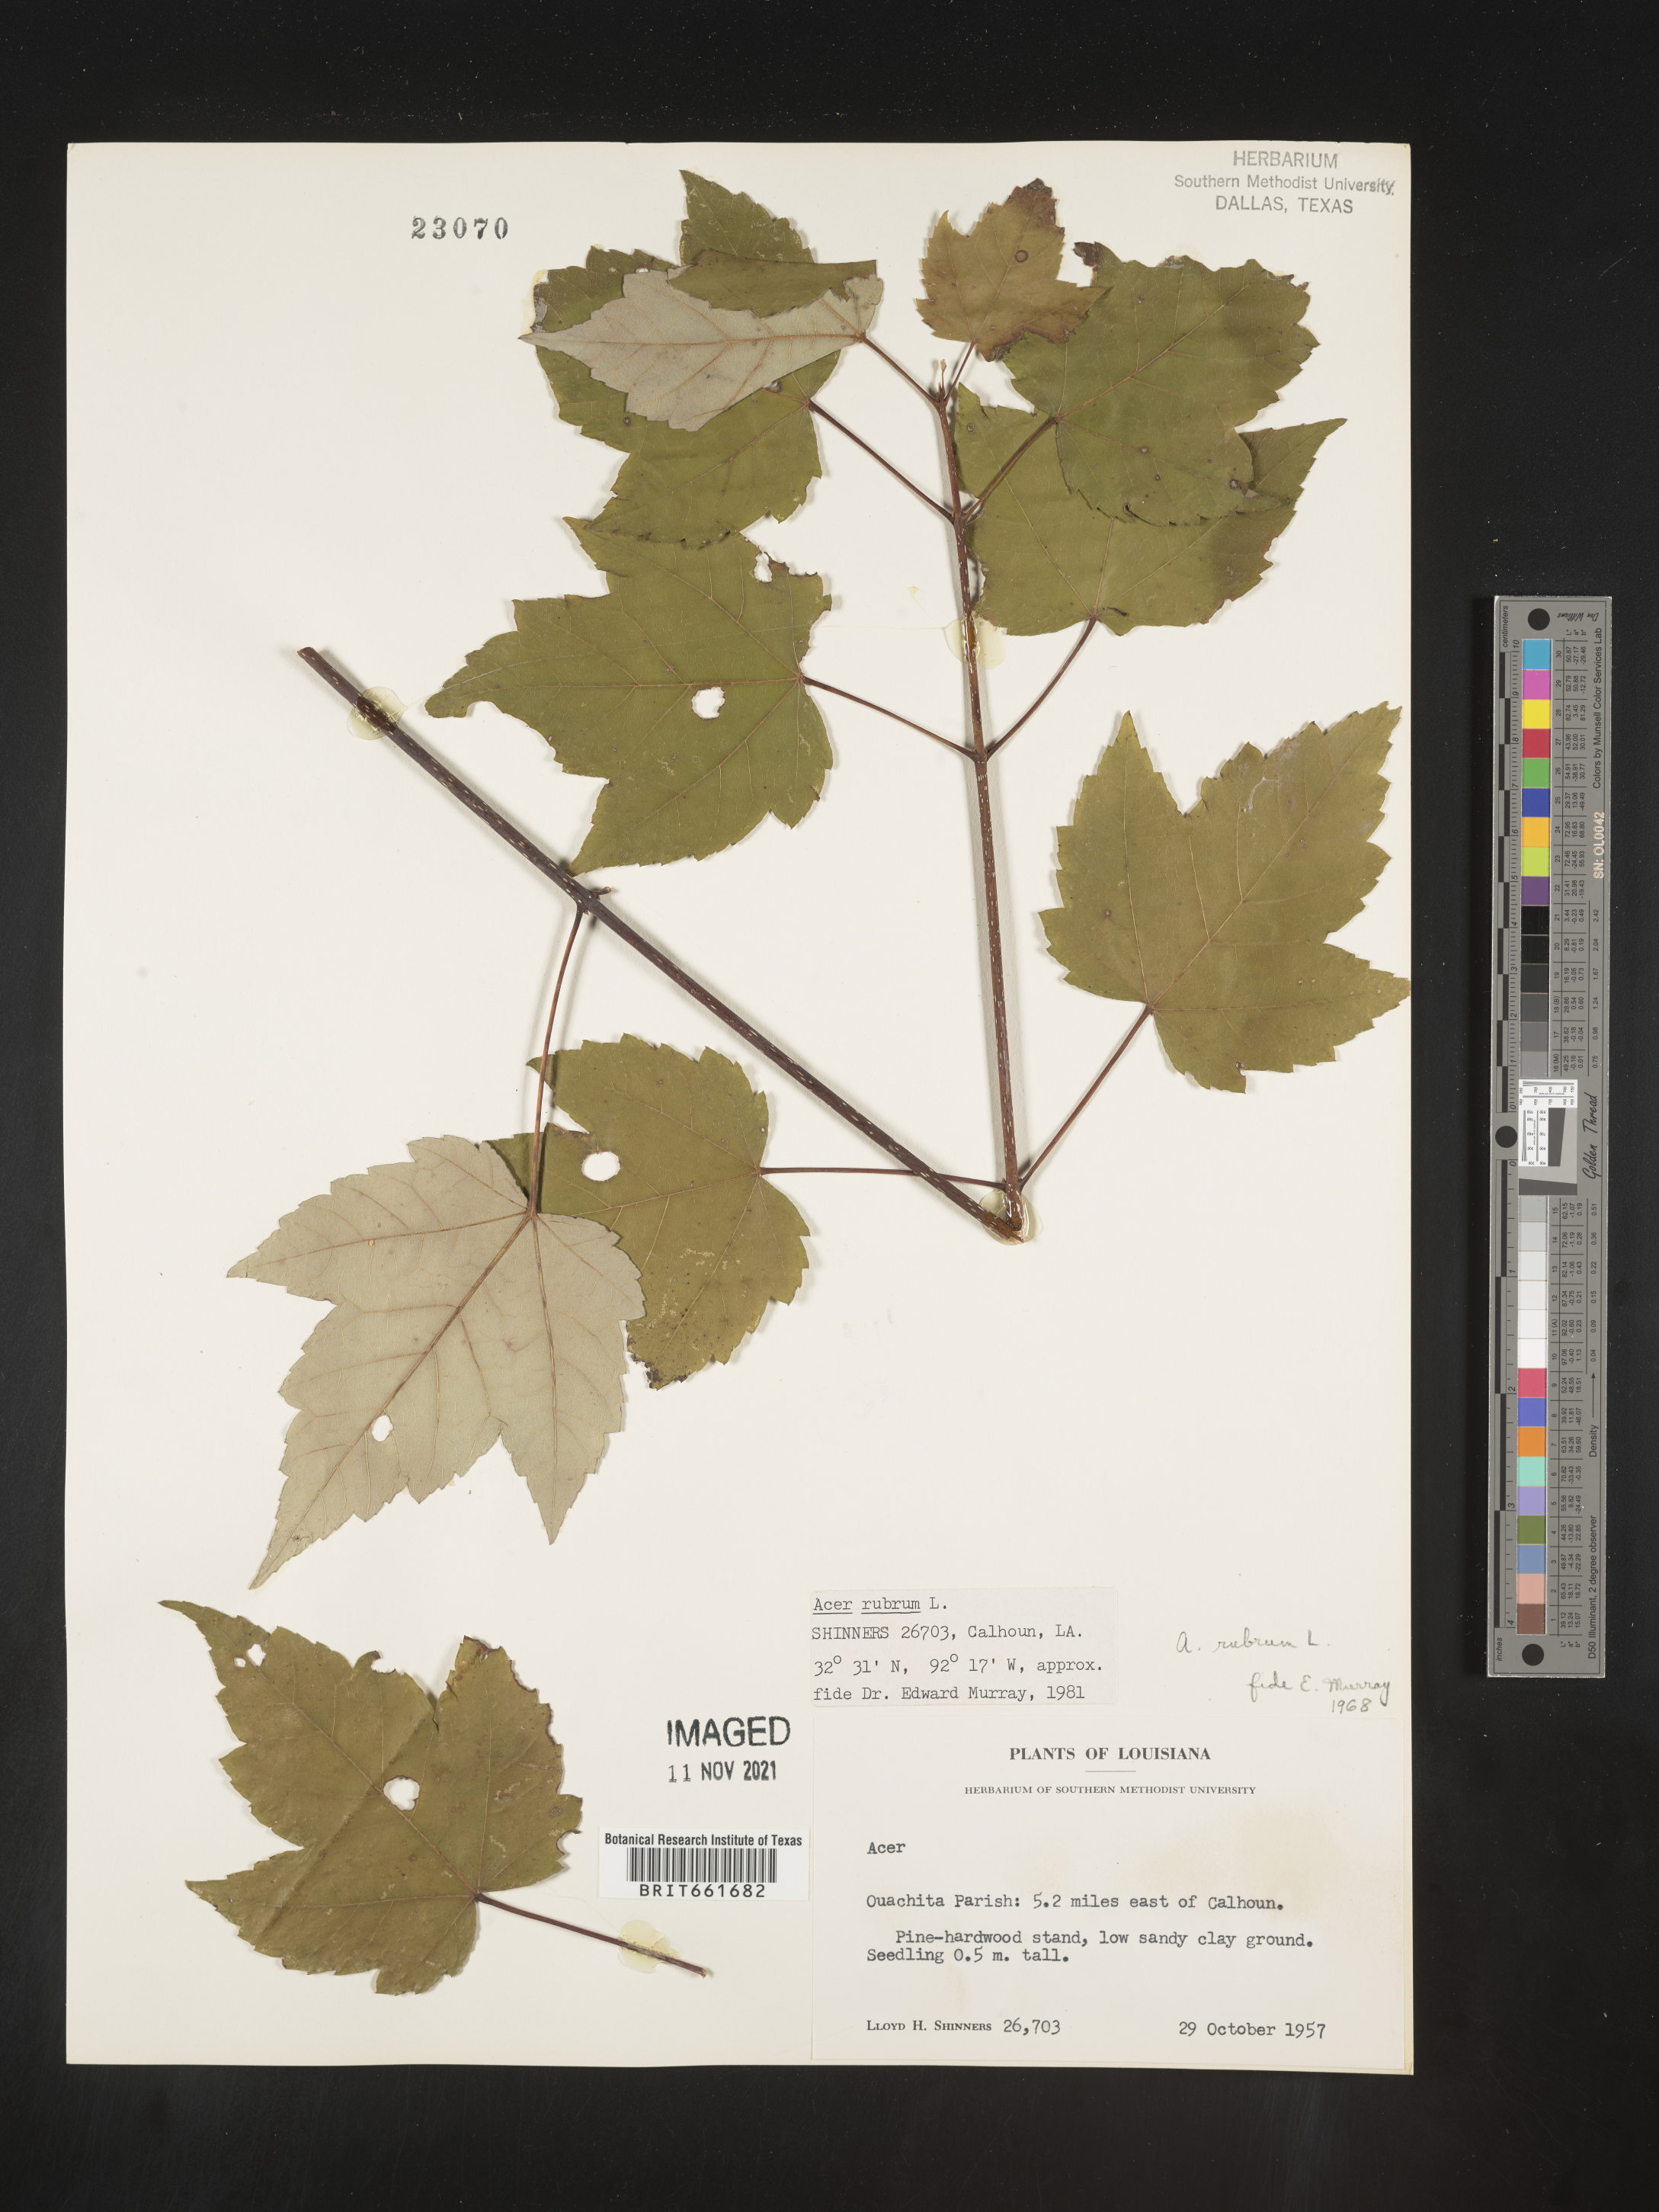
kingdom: Plantae
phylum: Tracheophyta
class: Magnoliopsida
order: Sapindales
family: Sapindaceae
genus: Acer
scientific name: Acer rubrum
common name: Red maple
